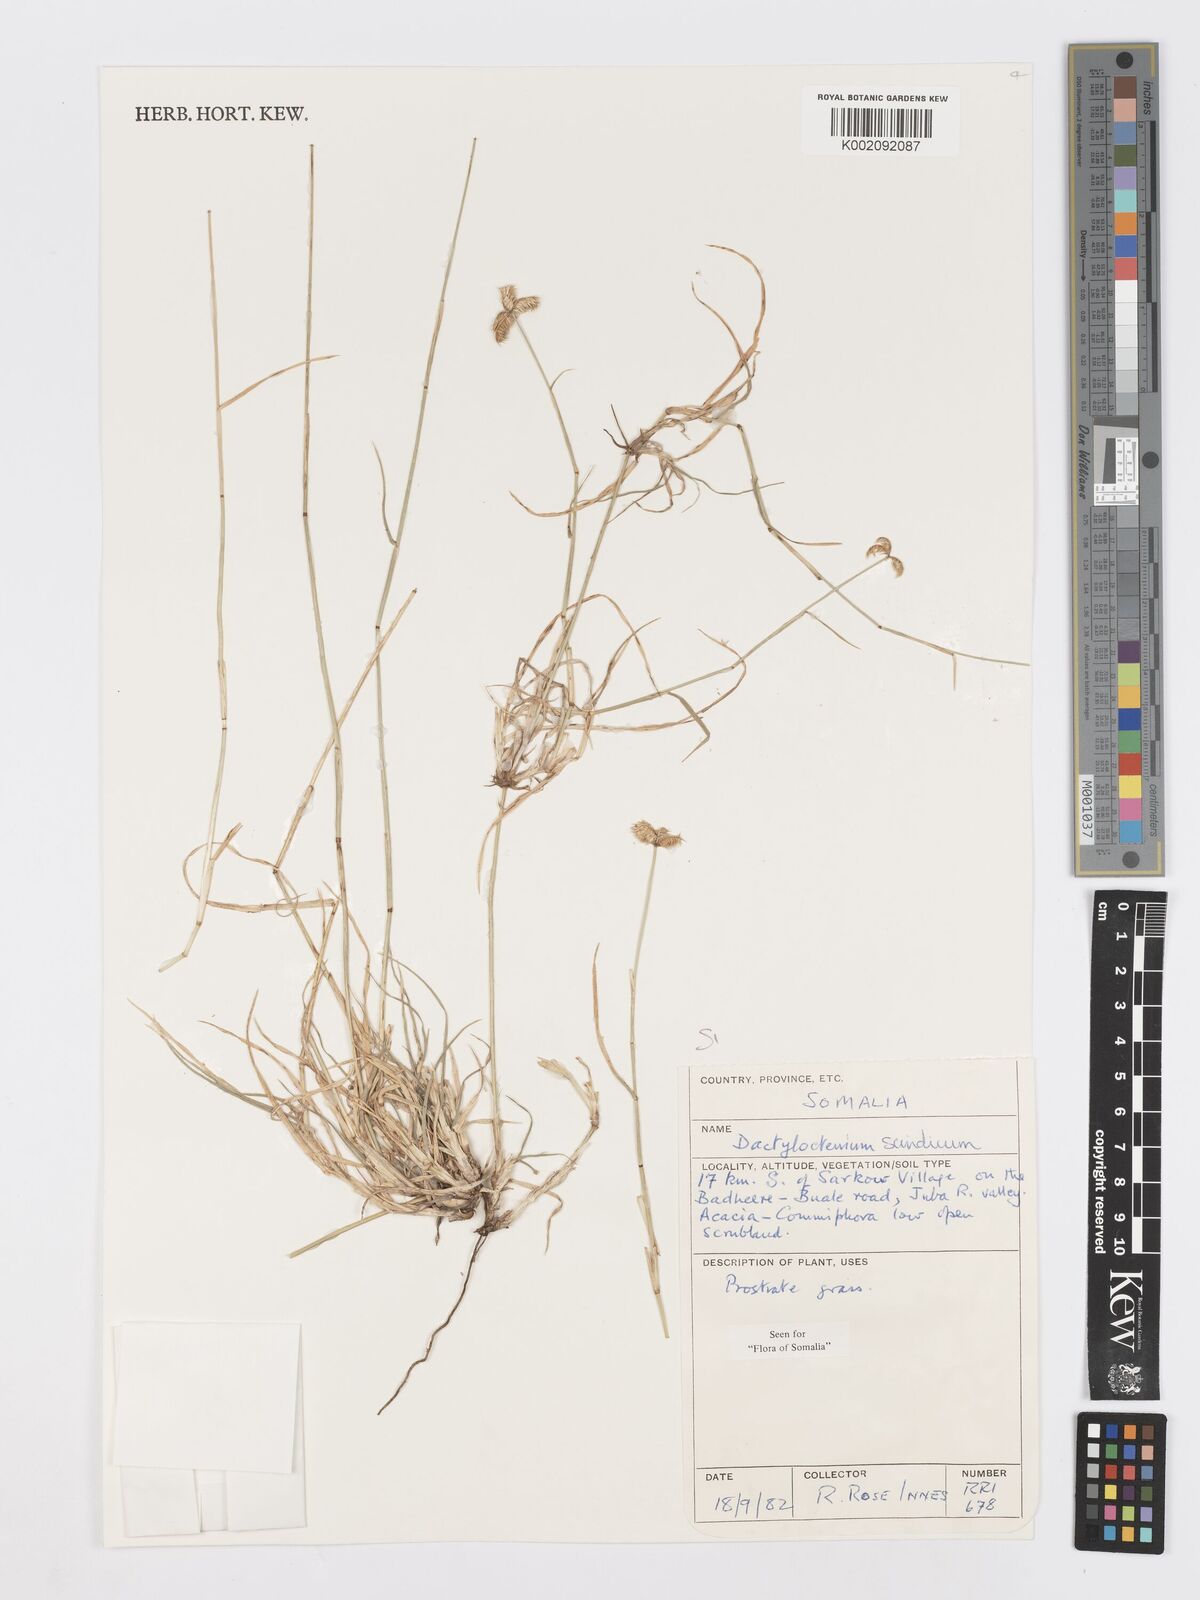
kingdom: Plantae
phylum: Tracheophyta
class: Liliopsida
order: Poales
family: Poaceae
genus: Dactyloctenium
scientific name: Dactyloctenium scindicum
